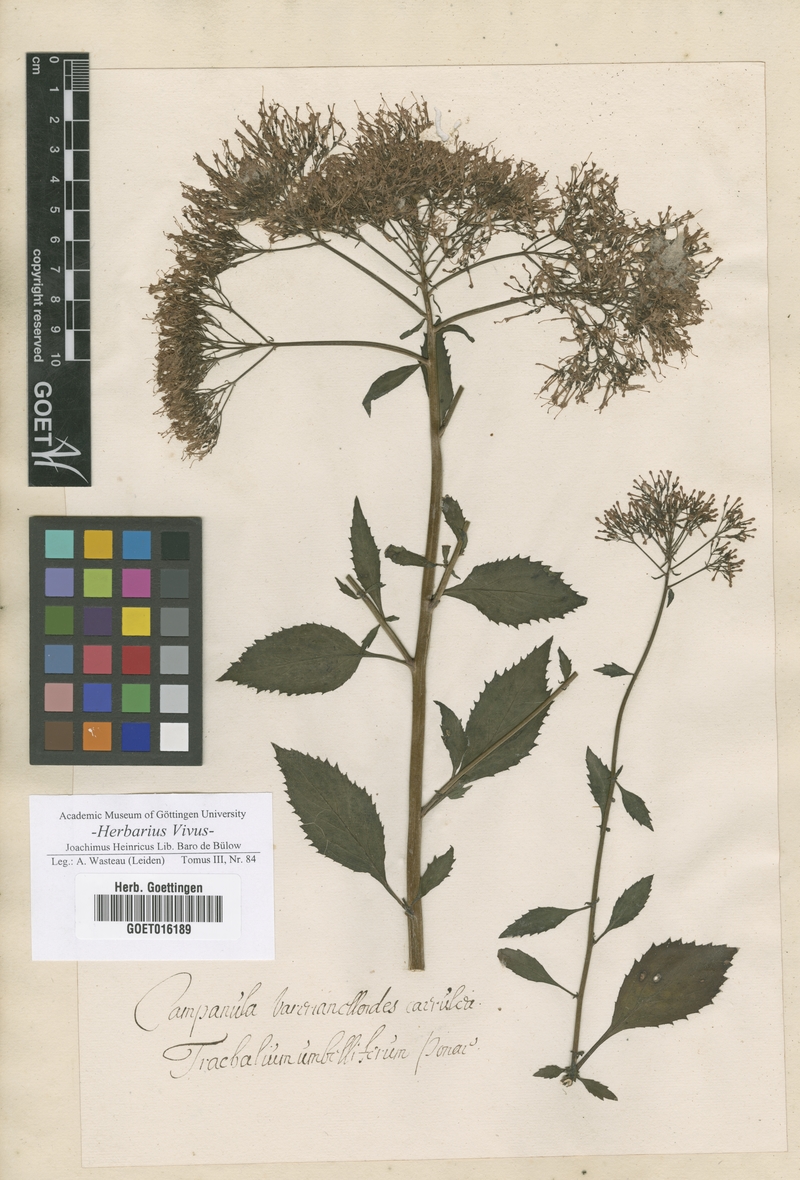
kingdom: Plantae
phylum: Tracheophyta
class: Magnoliopsida
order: Asterales
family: Campanulaceae
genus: Campanula
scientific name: Campanula persicifolia
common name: Peach-leaved bellflower
